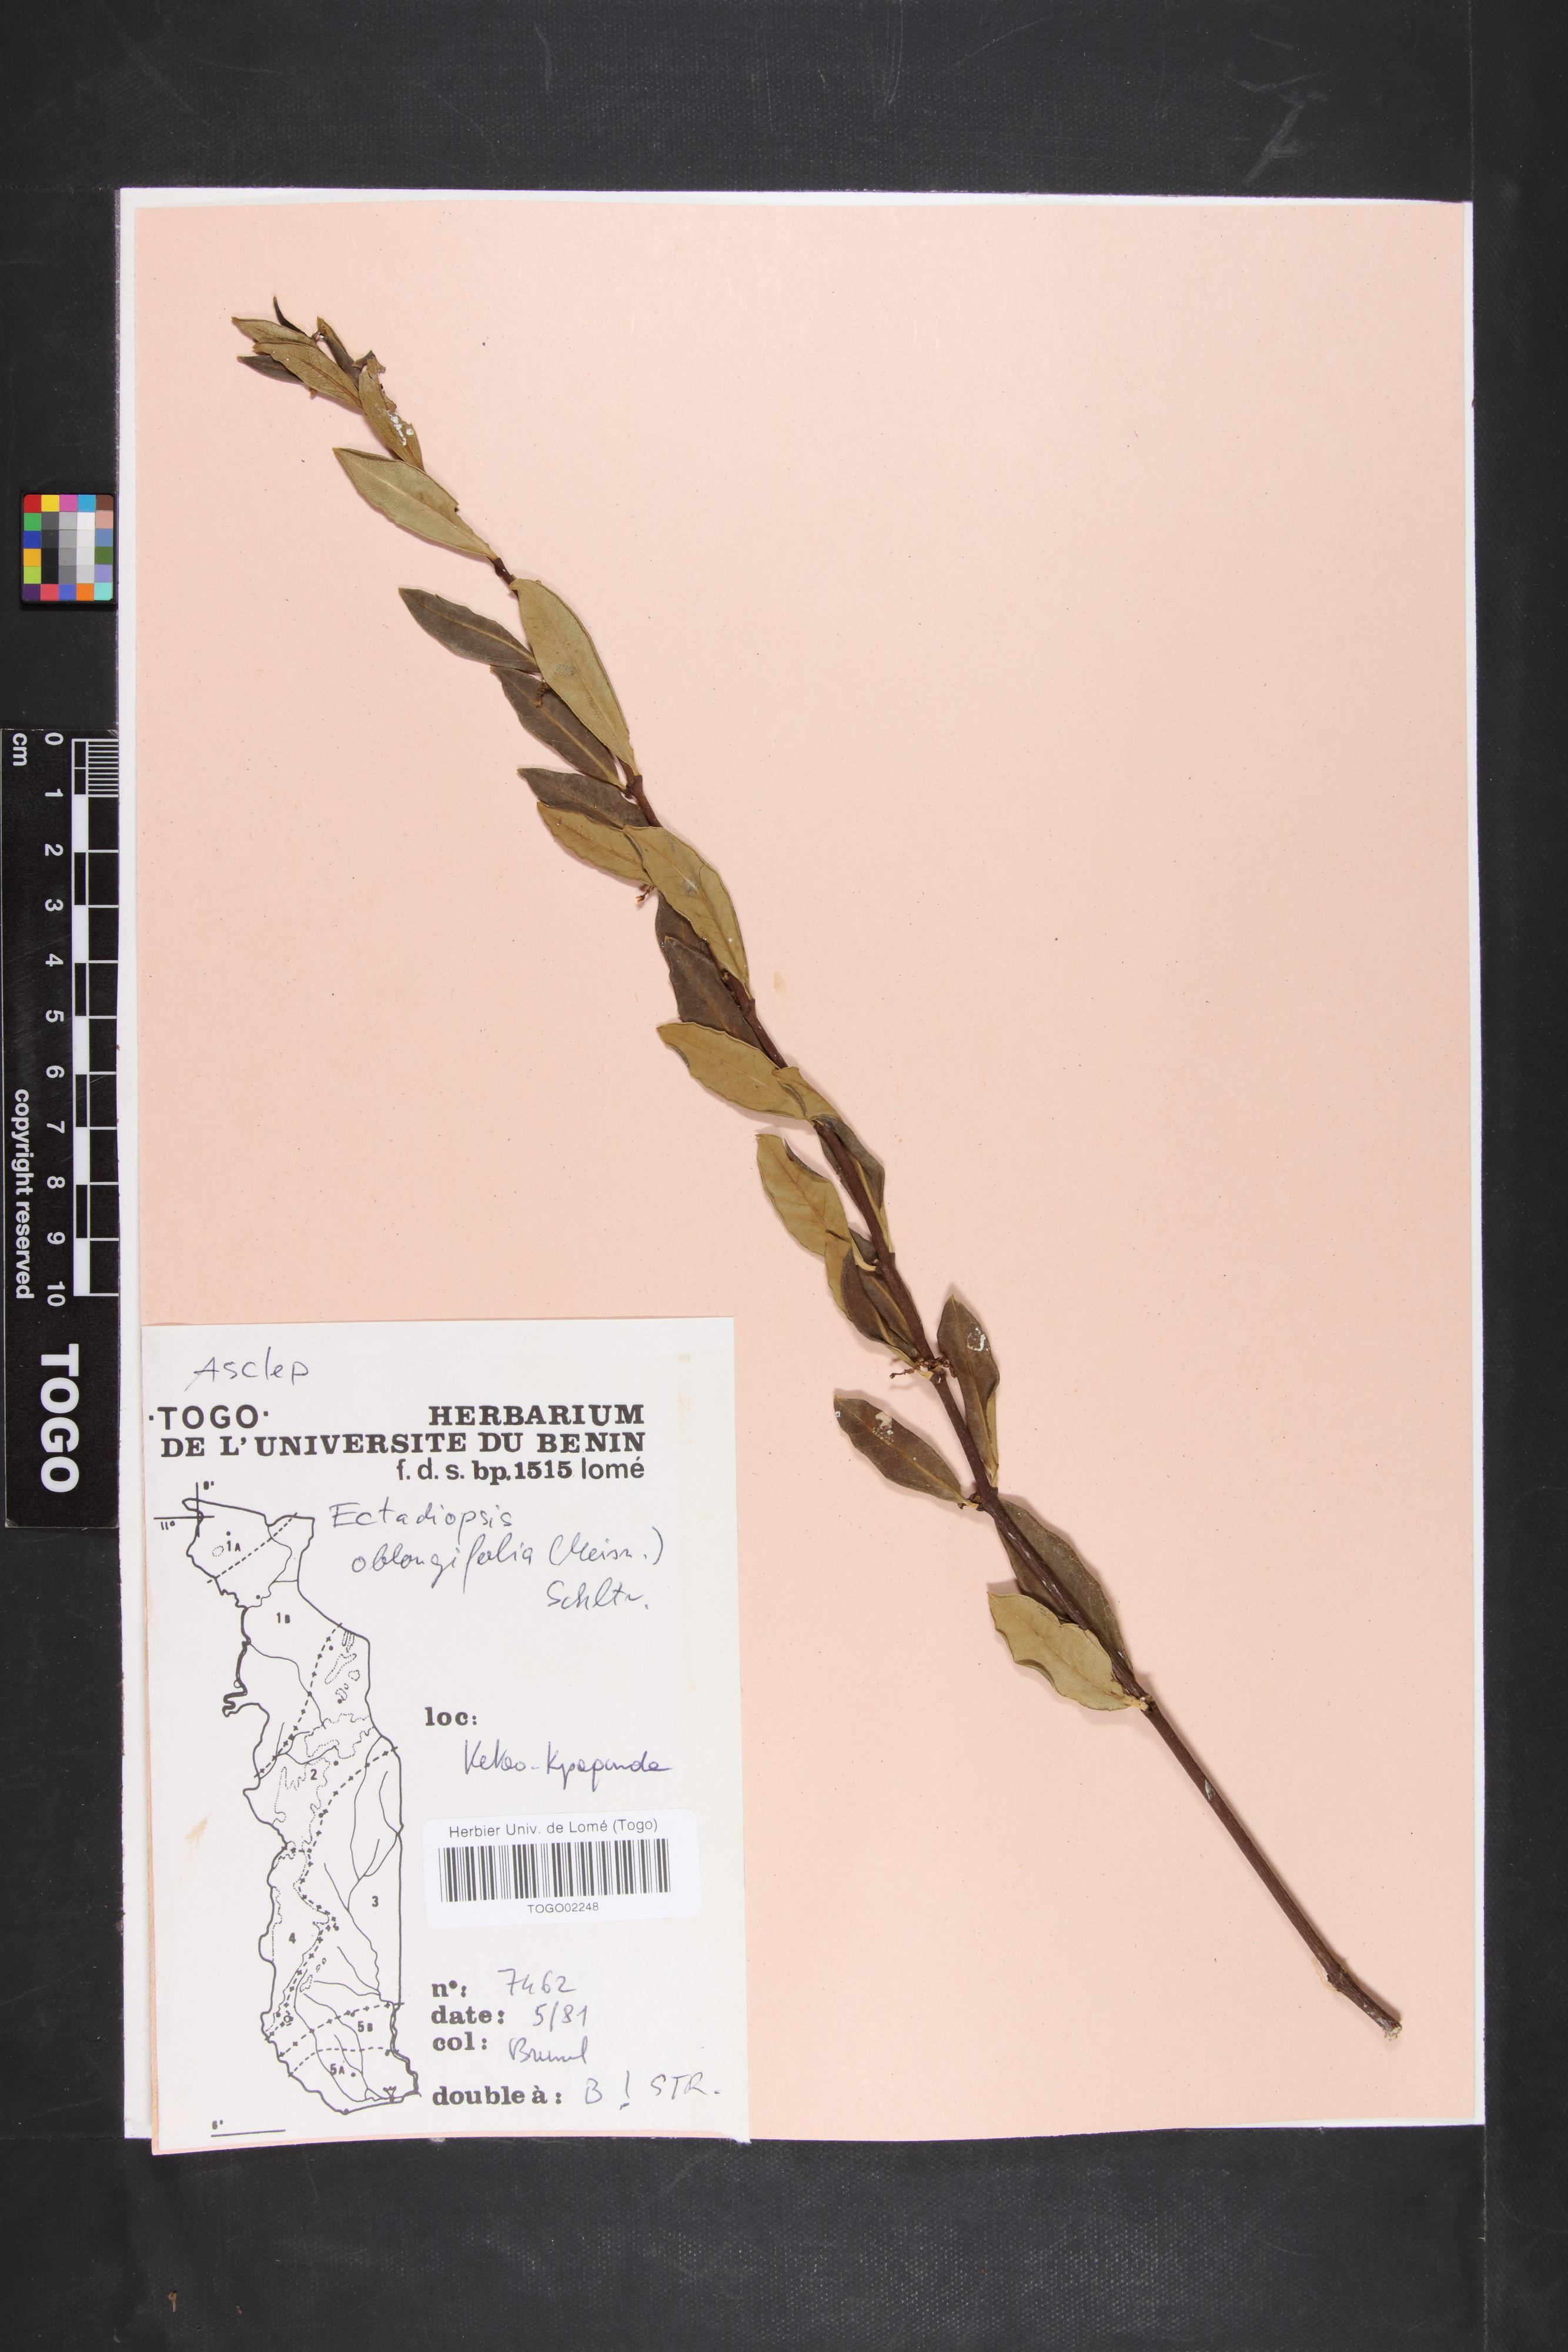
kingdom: Plantae
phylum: Tracheophyta
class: Magnoliopsida
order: Gentianales
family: Apocynaceae
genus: Cryptolepis
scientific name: Cryptolepis oblongifolia
